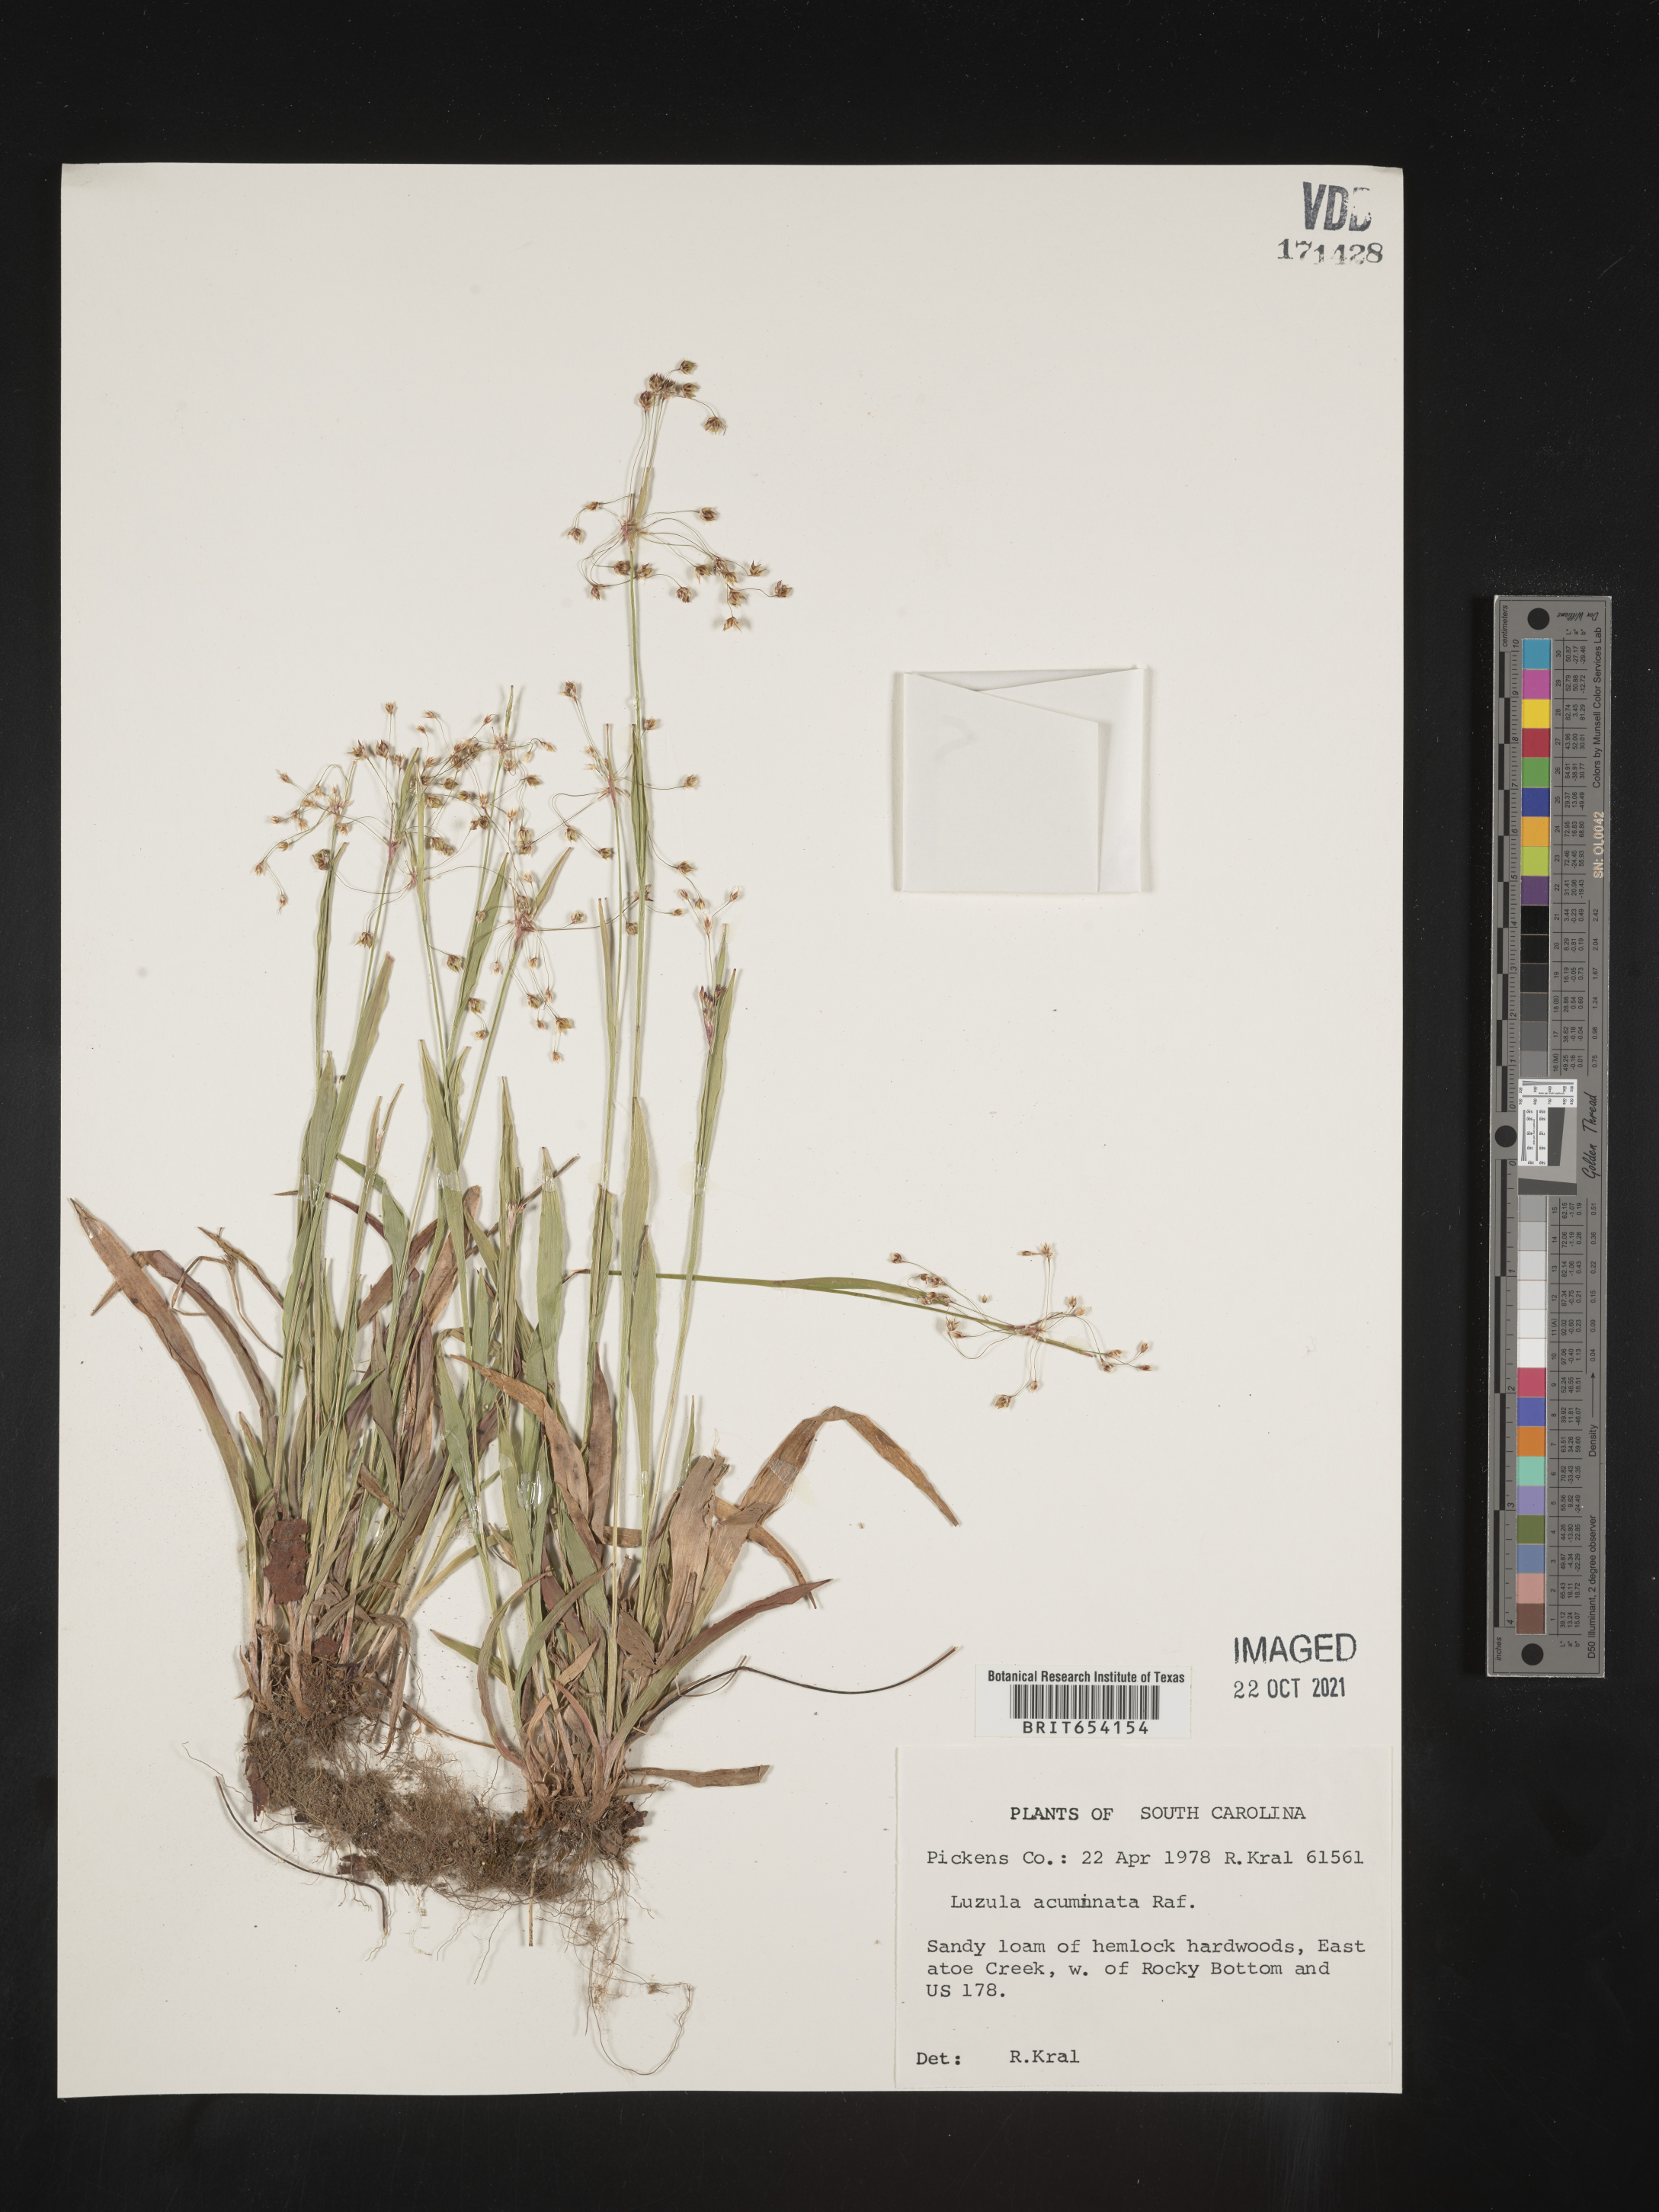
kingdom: Plantae
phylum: Tracheophyta
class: Liliopsida
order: Poales
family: Juncaceae
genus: Luzula
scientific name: Luzula acuminata
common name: Hairy woodrush
